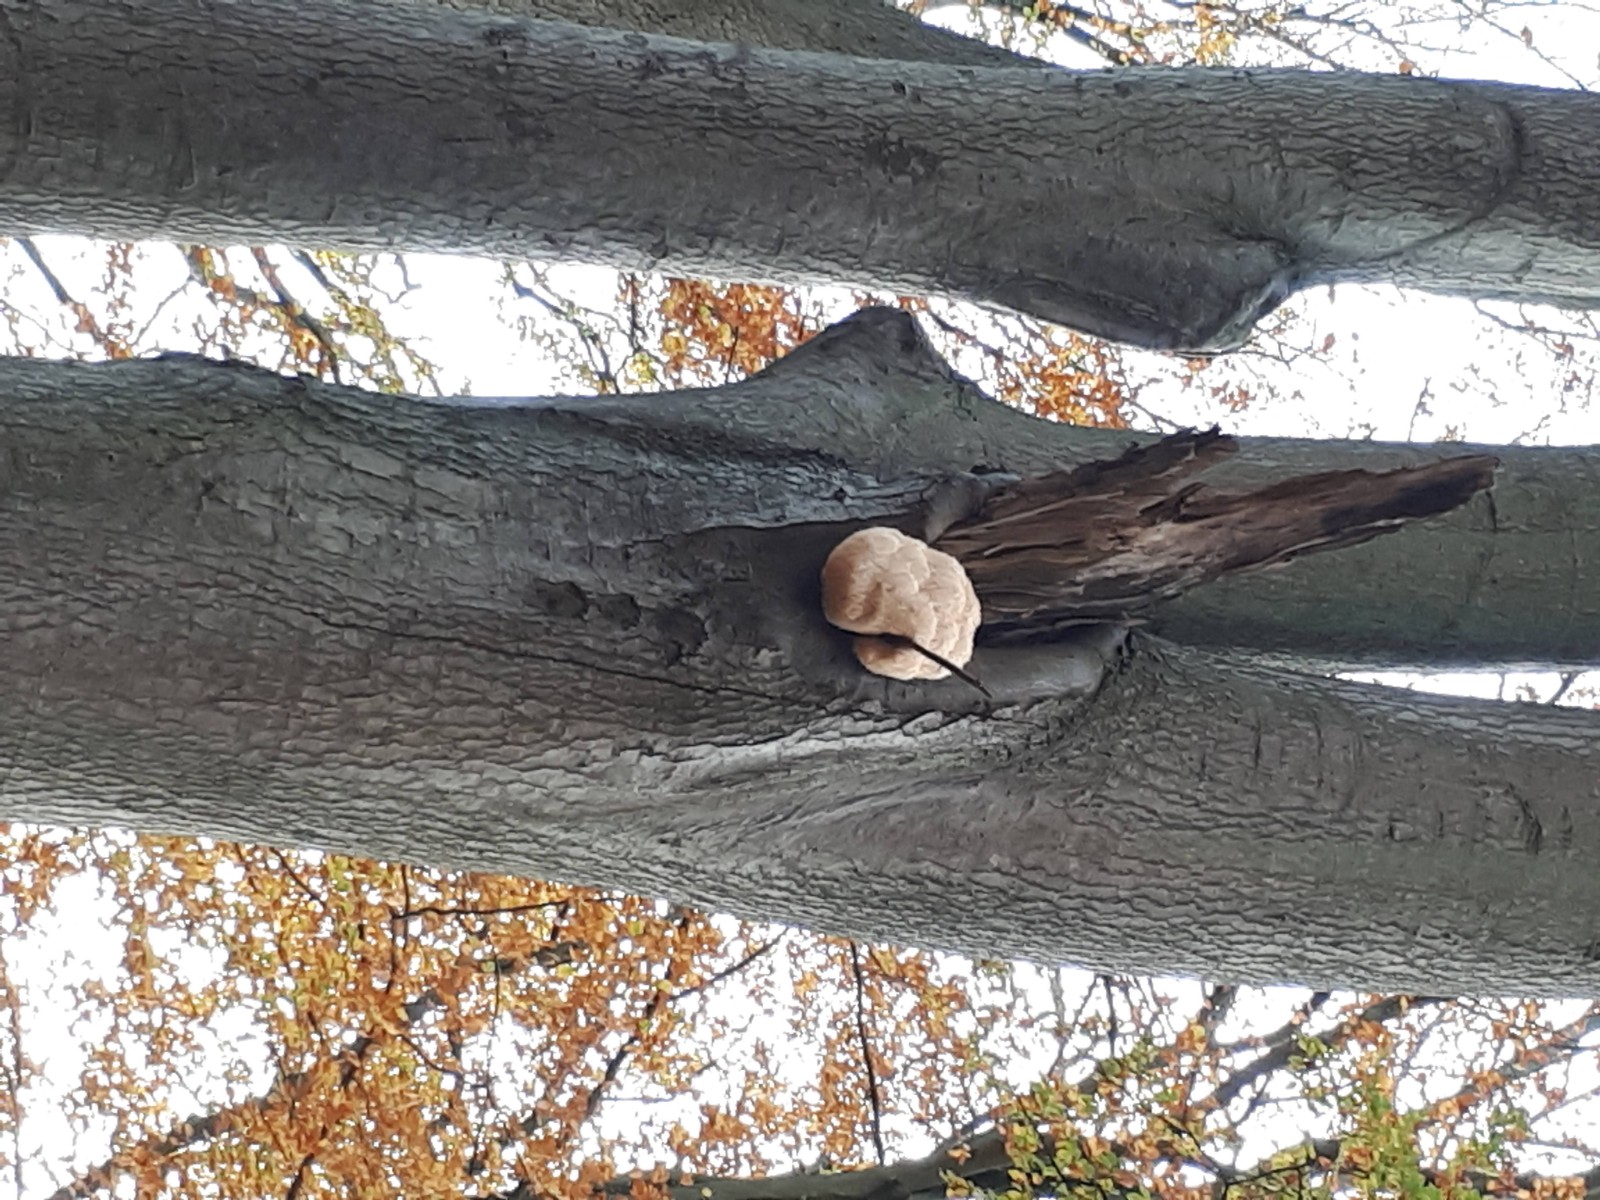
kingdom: Fungi
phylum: Basidiomycota
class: Agaricomycetes
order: Russulales
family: Hericiaceae
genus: Hericium
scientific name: Hericium erinaceus
